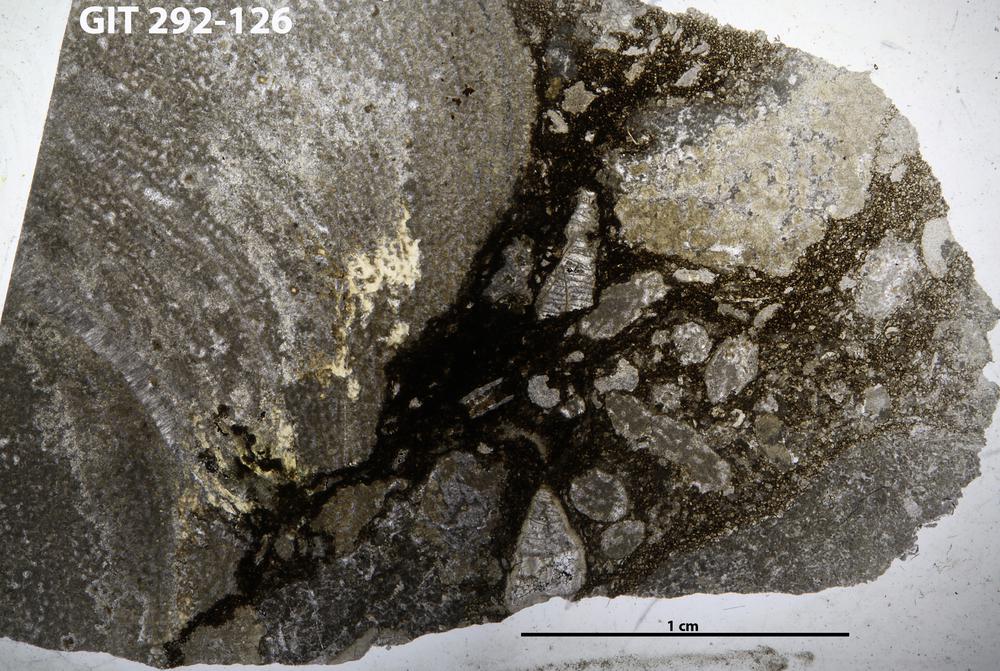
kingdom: Animalia
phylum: Porifera
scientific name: Porifera
